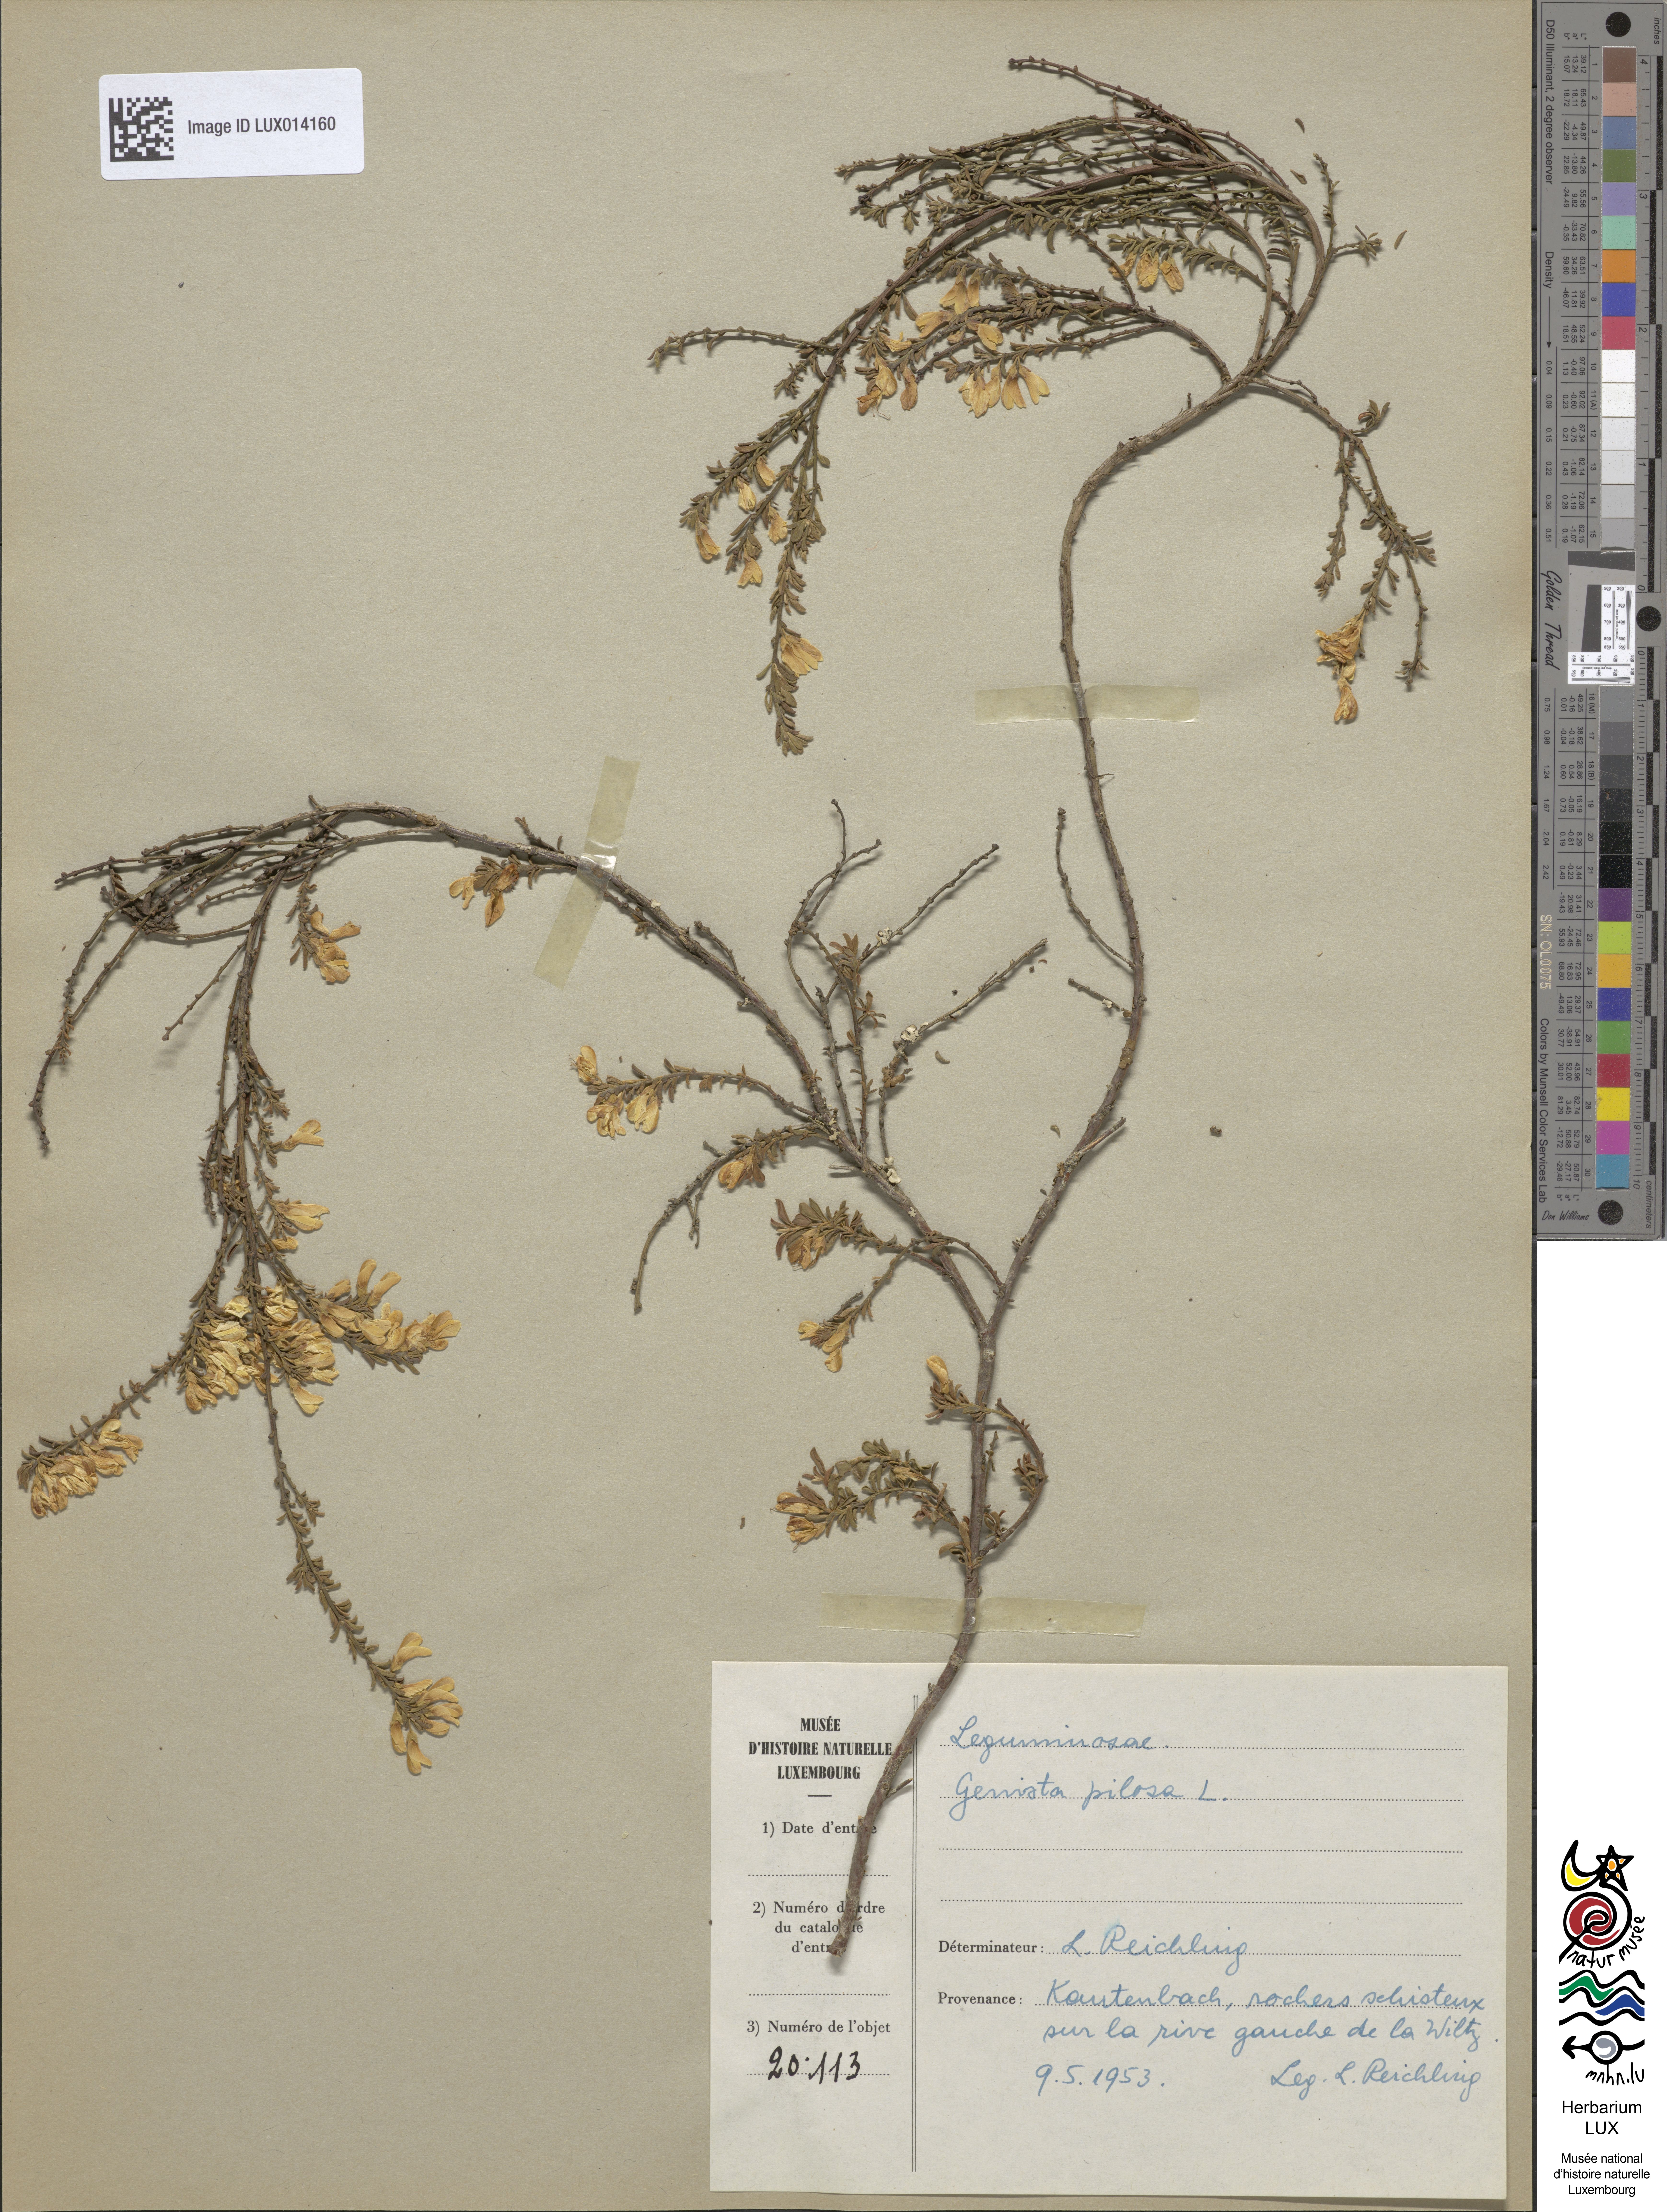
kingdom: Plantae
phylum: Tracheophyta
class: Magnoliopsida
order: Fabales
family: Fabaceae
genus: Genista
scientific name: Genista pilosa
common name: Hairy greenweed
